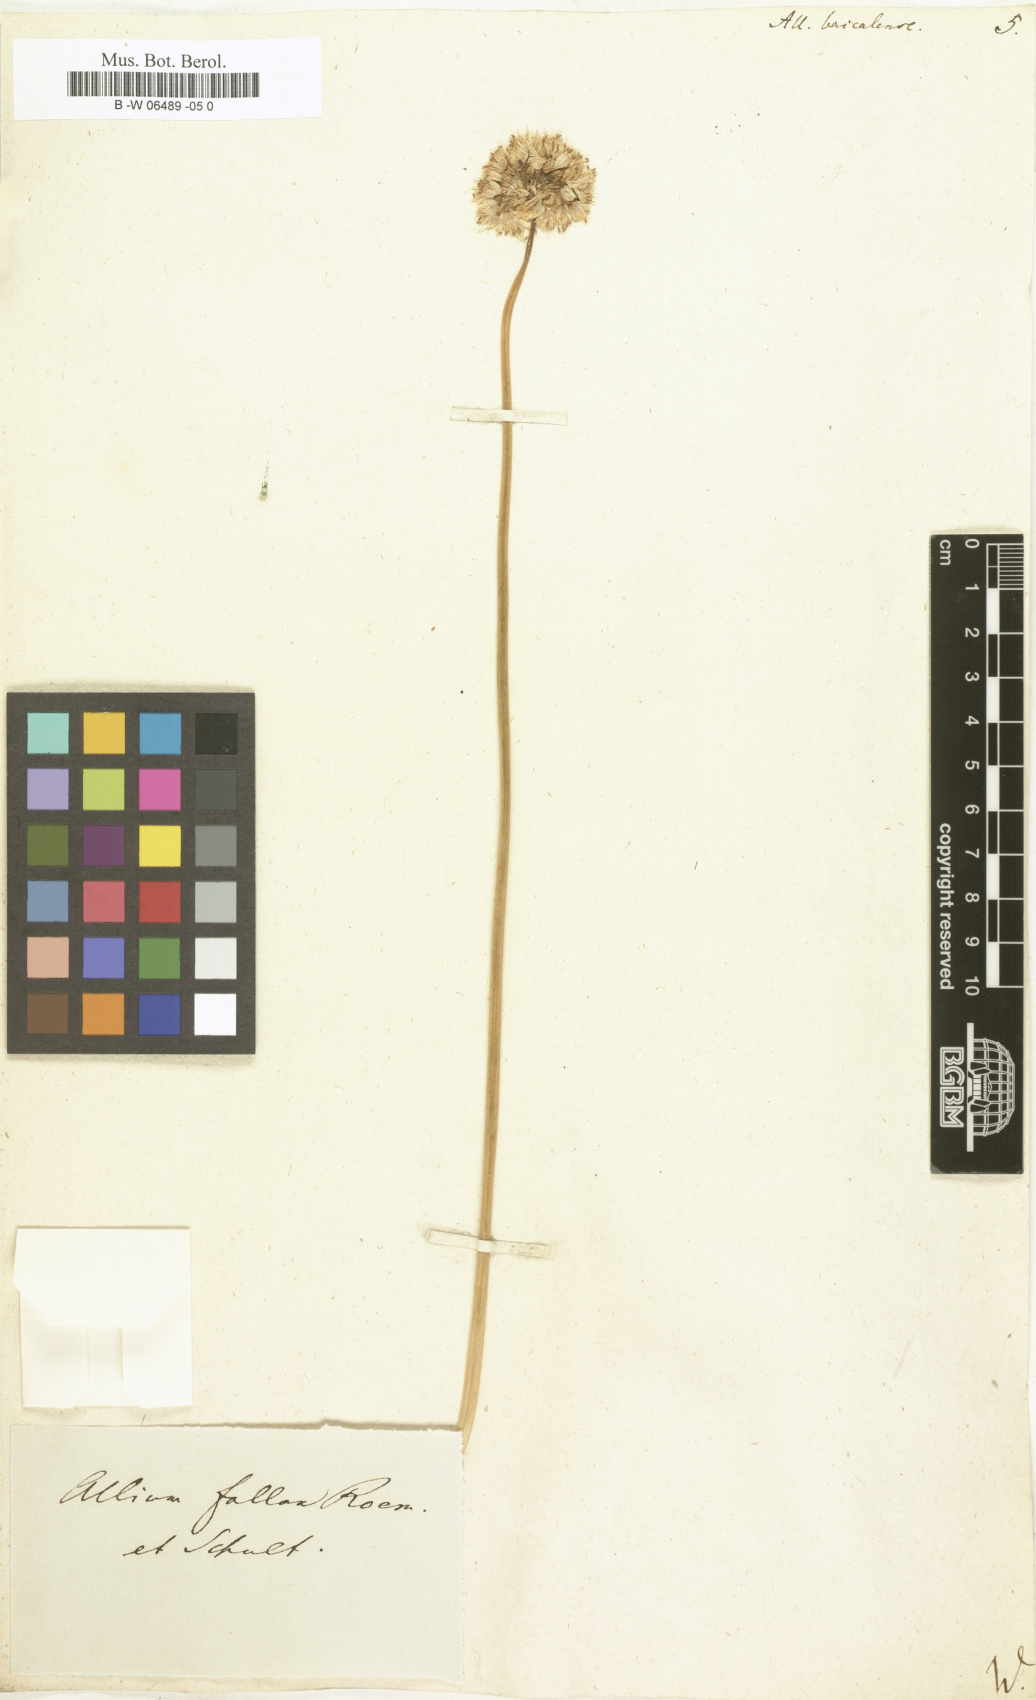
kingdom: Plantae
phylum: Tracheophyta
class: Liliopsida
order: Asparagales
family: Amaryllidaceae
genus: Allium
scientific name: Allium senescens
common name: German garlic
